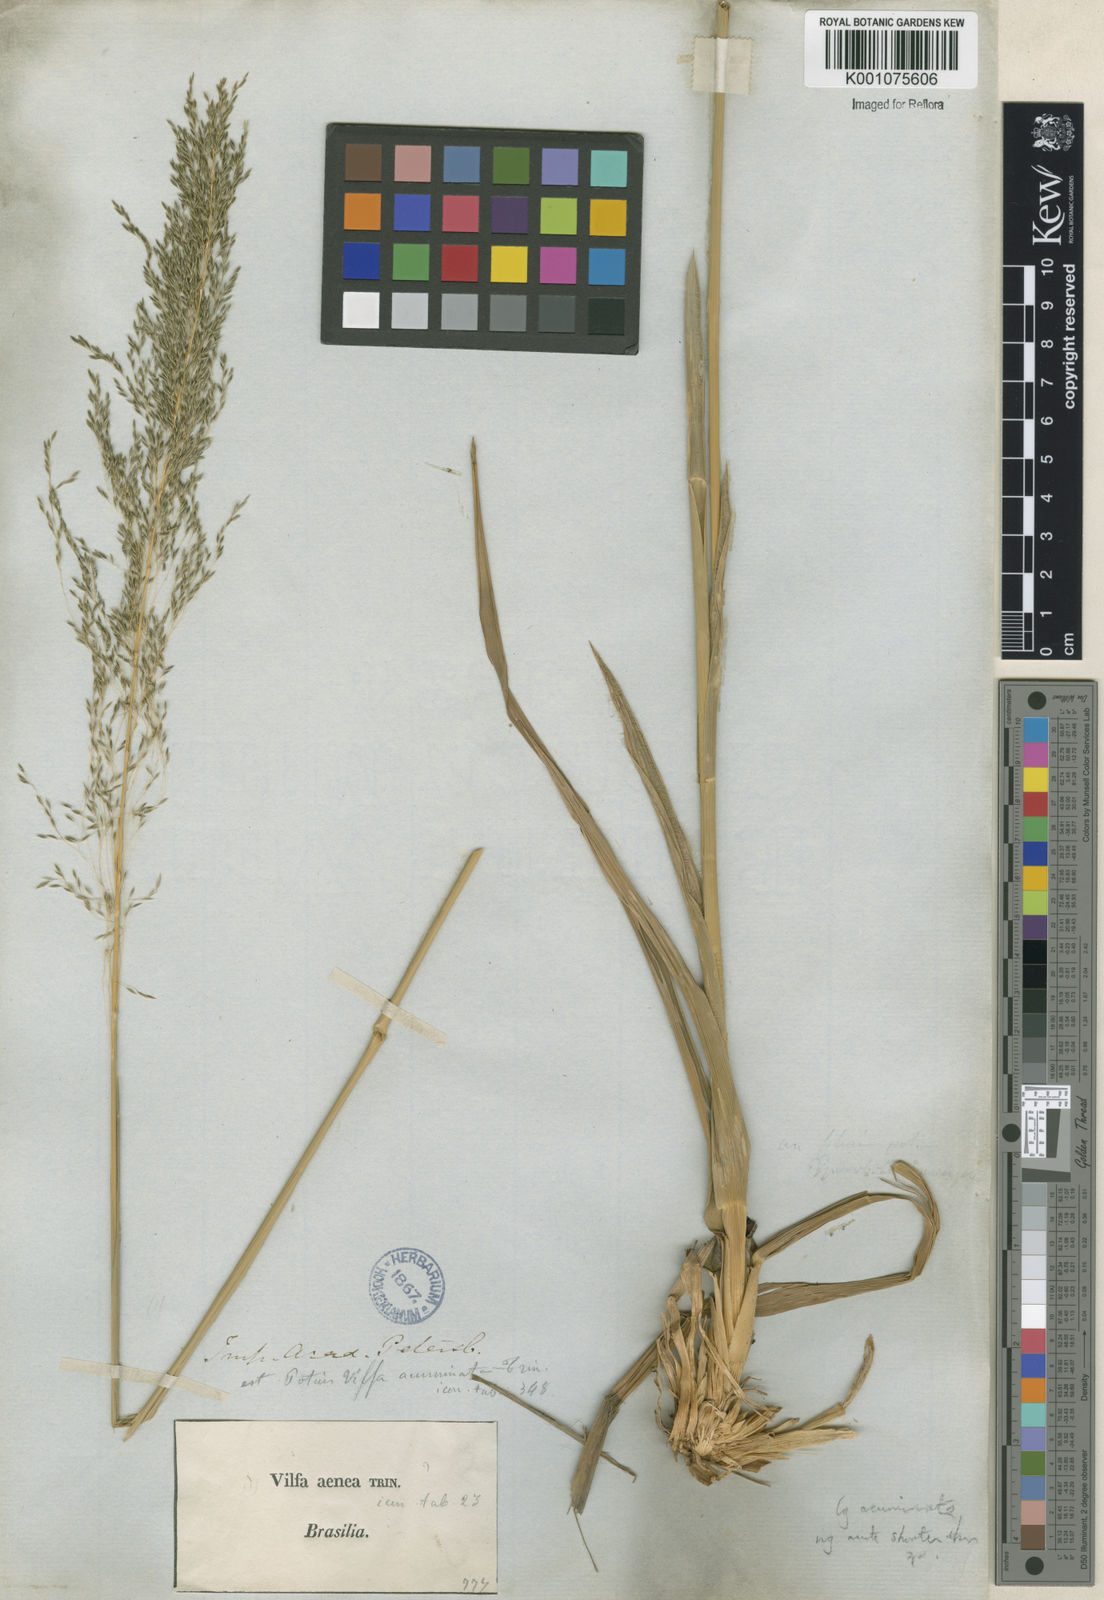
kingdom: Plantae
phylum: Tracheophyta
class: Liliopsida
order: Poales
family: Poaceae
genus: Sporobolus
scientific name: Sporobolus
